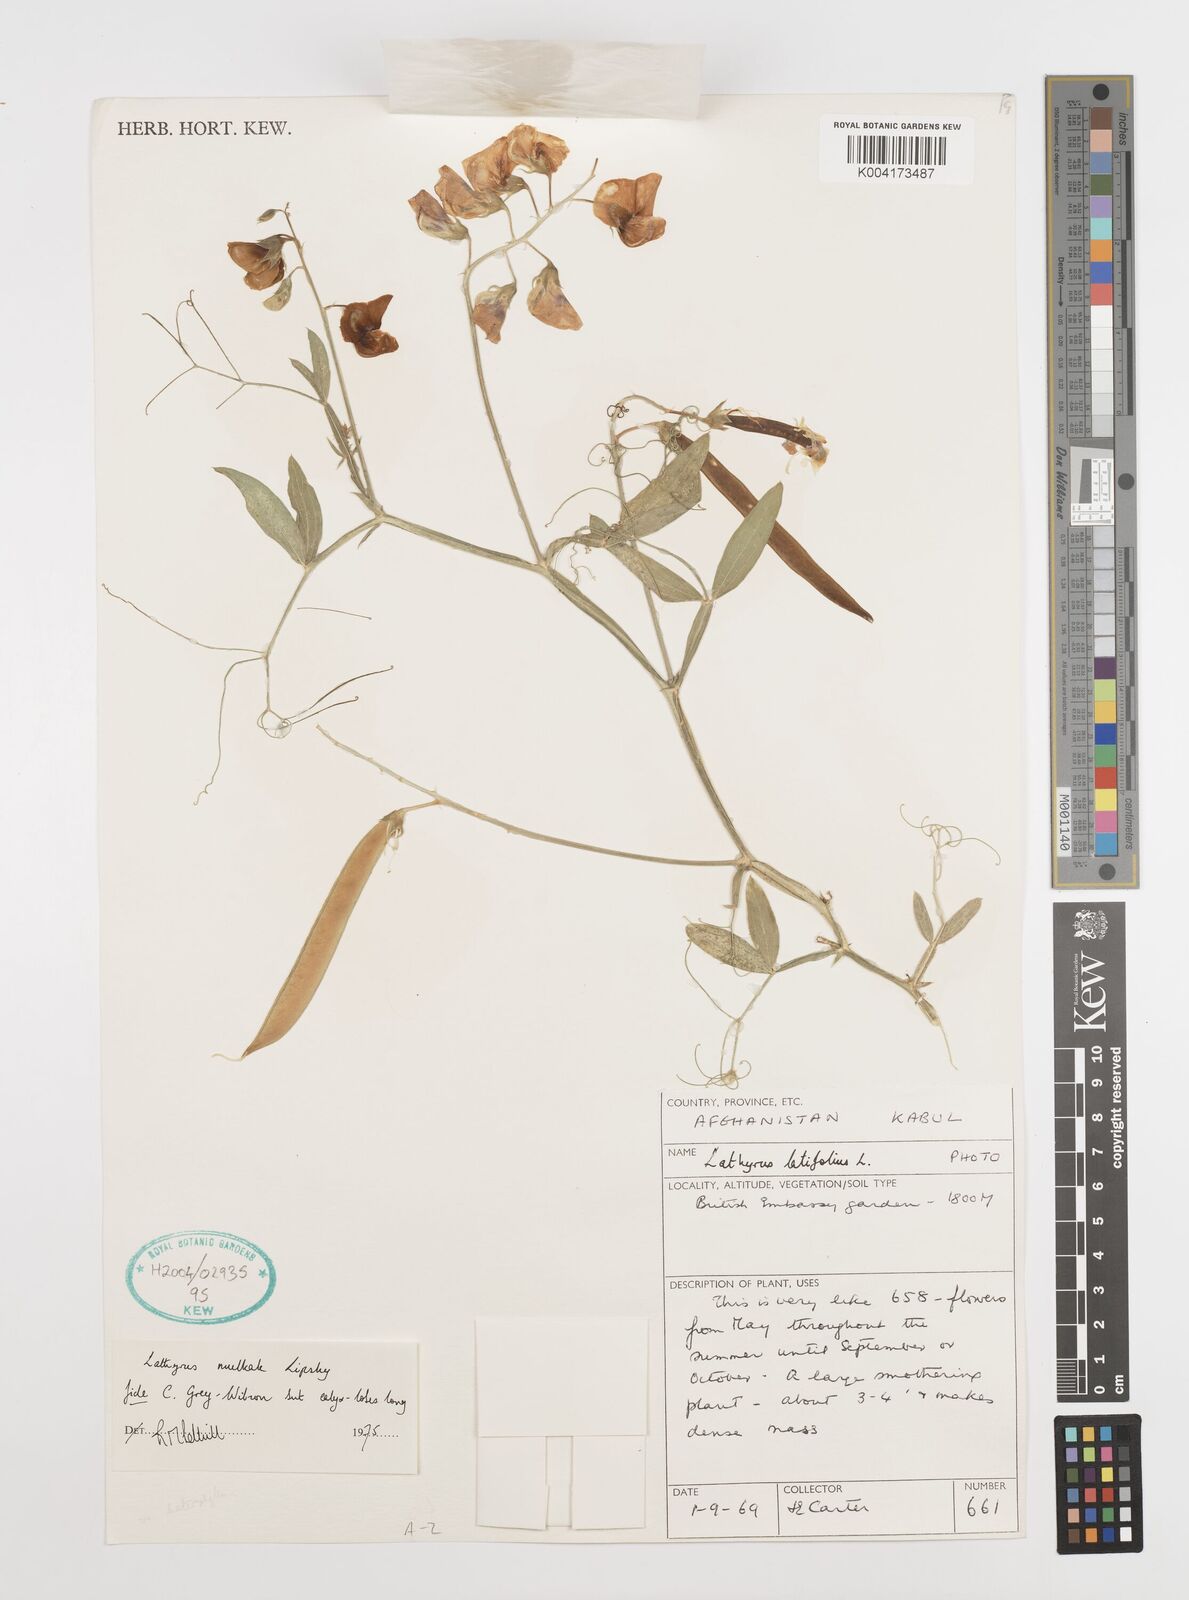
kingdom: Plantae
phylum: Tracheophyta
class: Magnoliopsida
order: Fabales
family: Fabaceae
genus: Lathyrus
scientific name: Lathyrus mulkak
